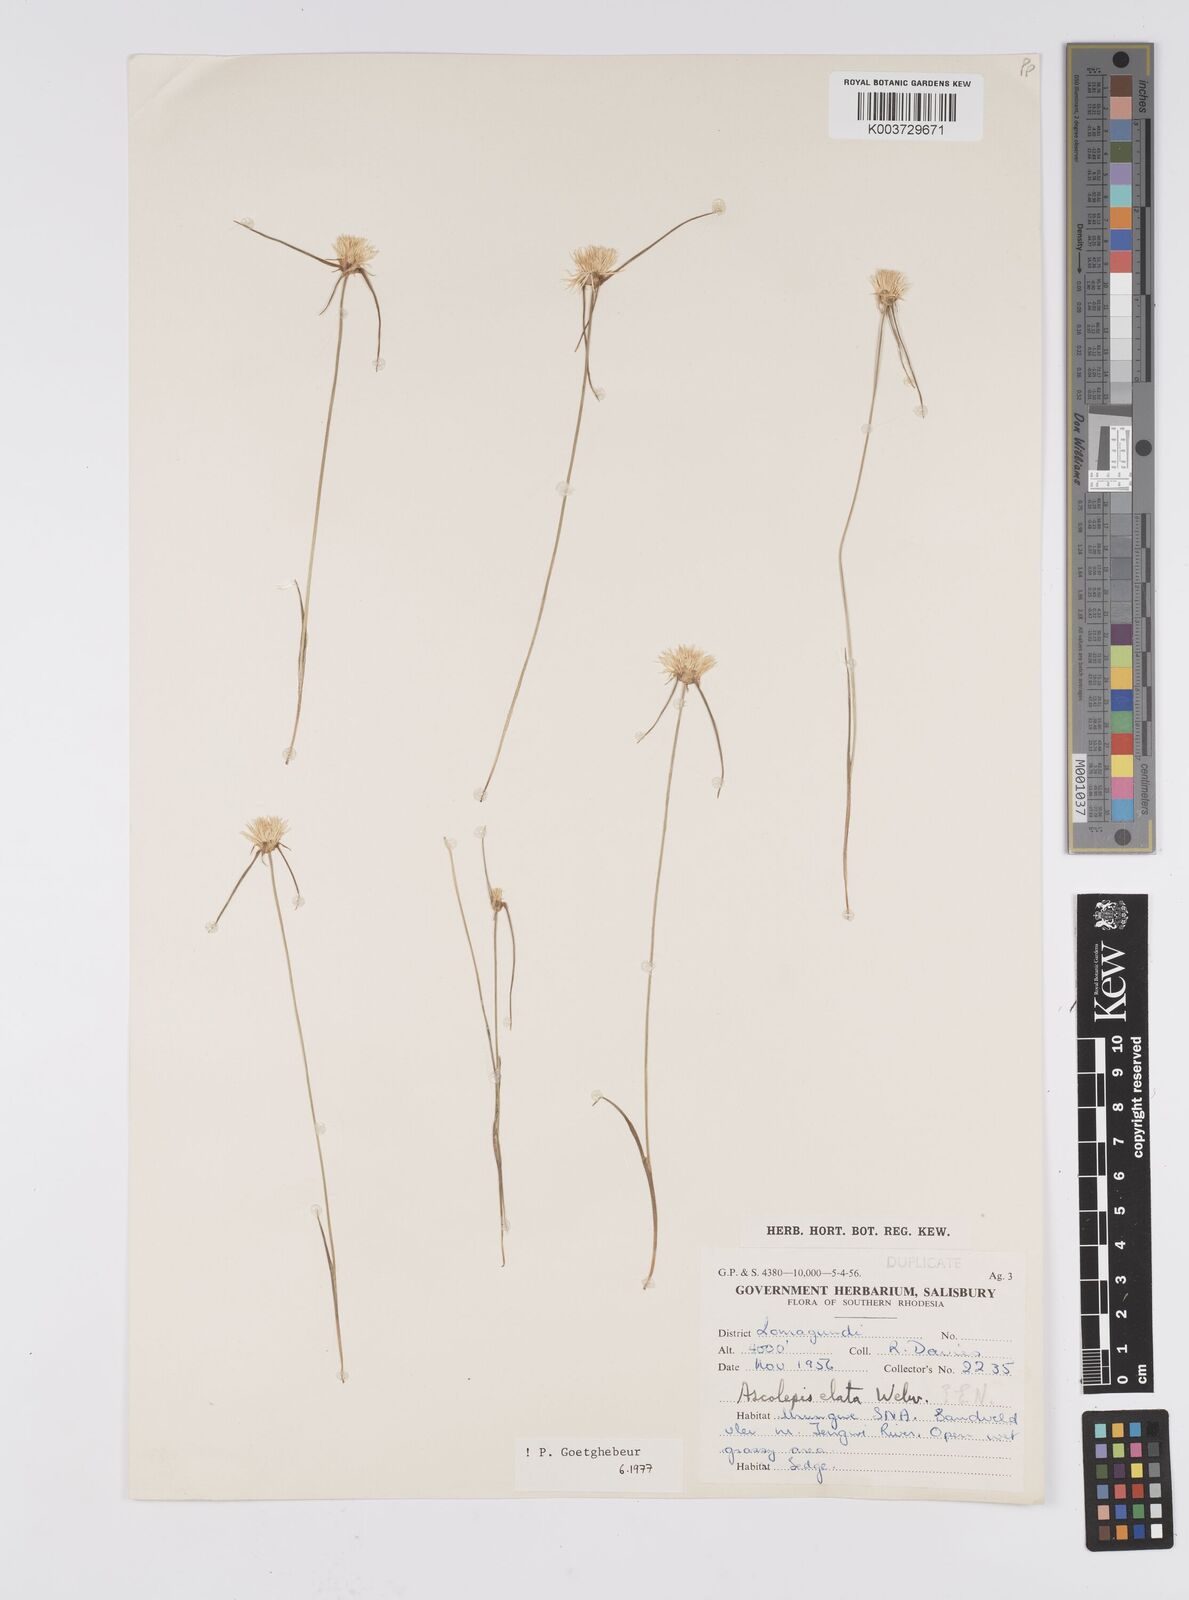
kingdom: Plantae
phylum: Tracheophyta
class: Liliopsida
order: Poales
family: Cyperaceae
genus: Cyperus
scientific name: Cyperus
